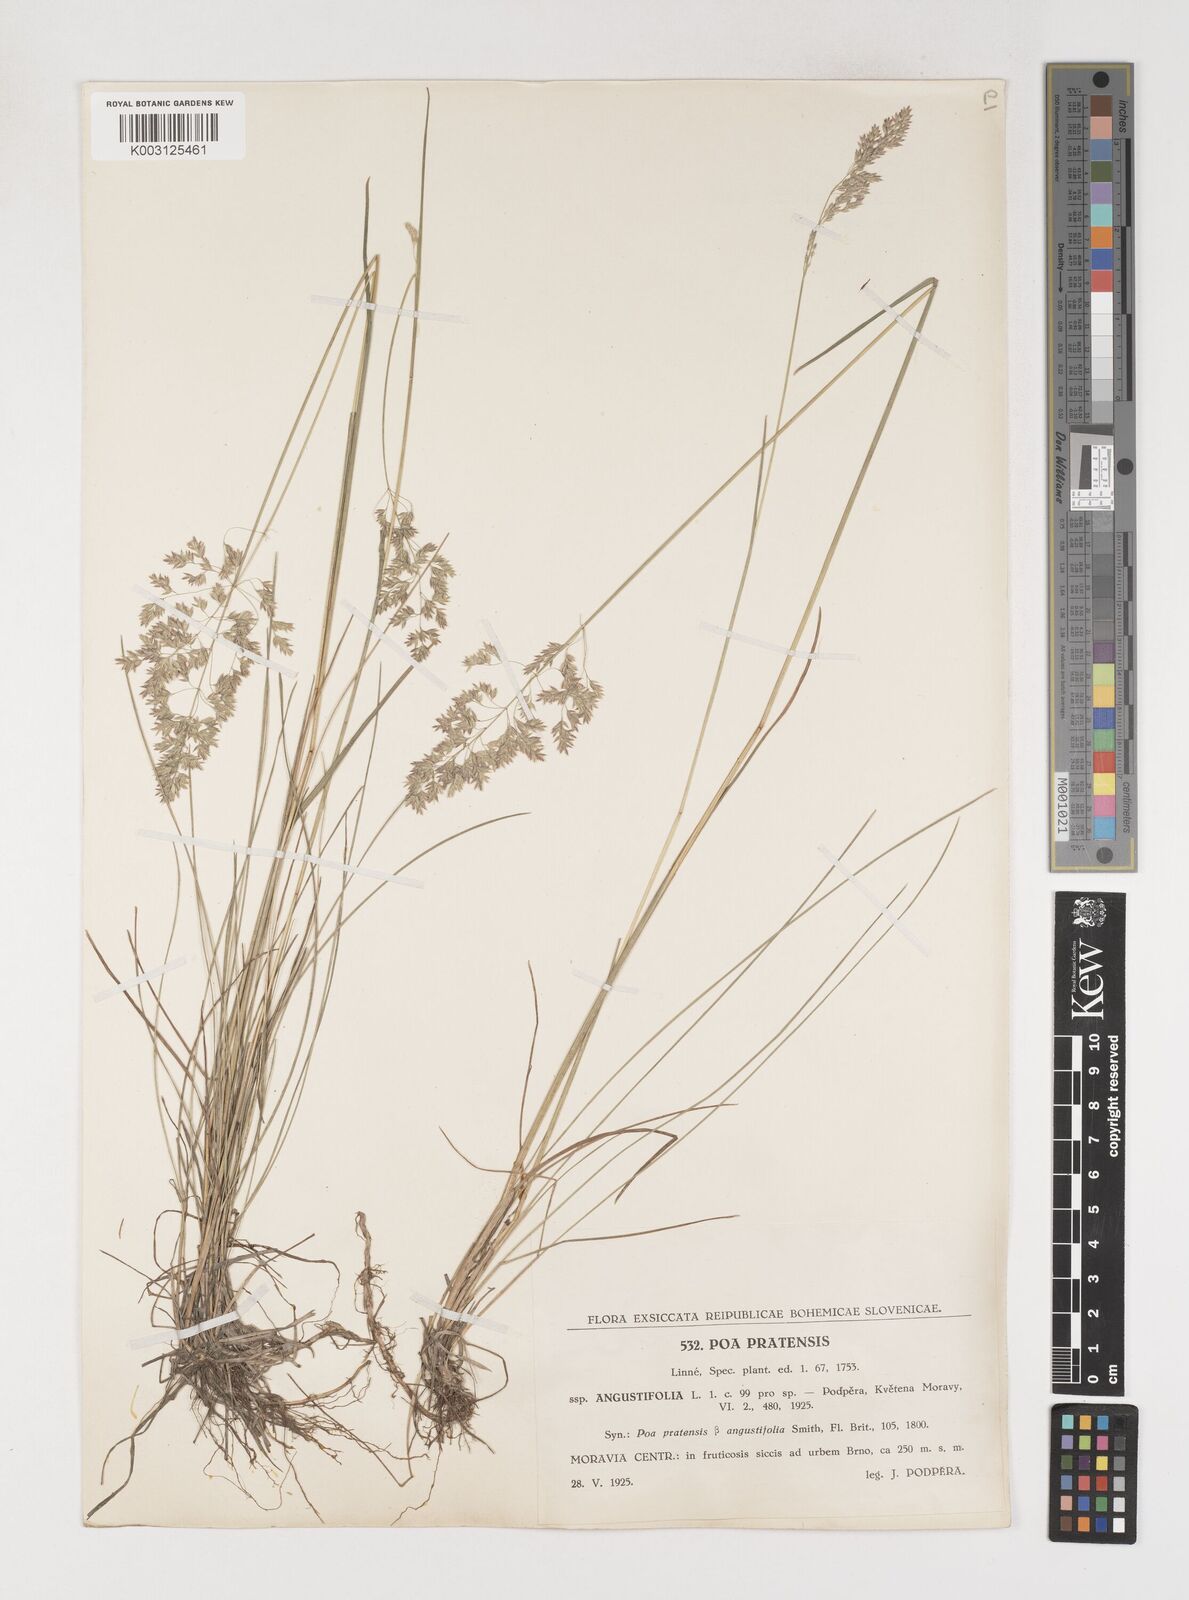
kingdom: Plantae
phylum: Tracheophyta
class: Liliopsida
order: Poales
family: Poaceae
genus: Poa
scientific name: Poa angustifolia
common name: Narrow-leaved meadow-grass
